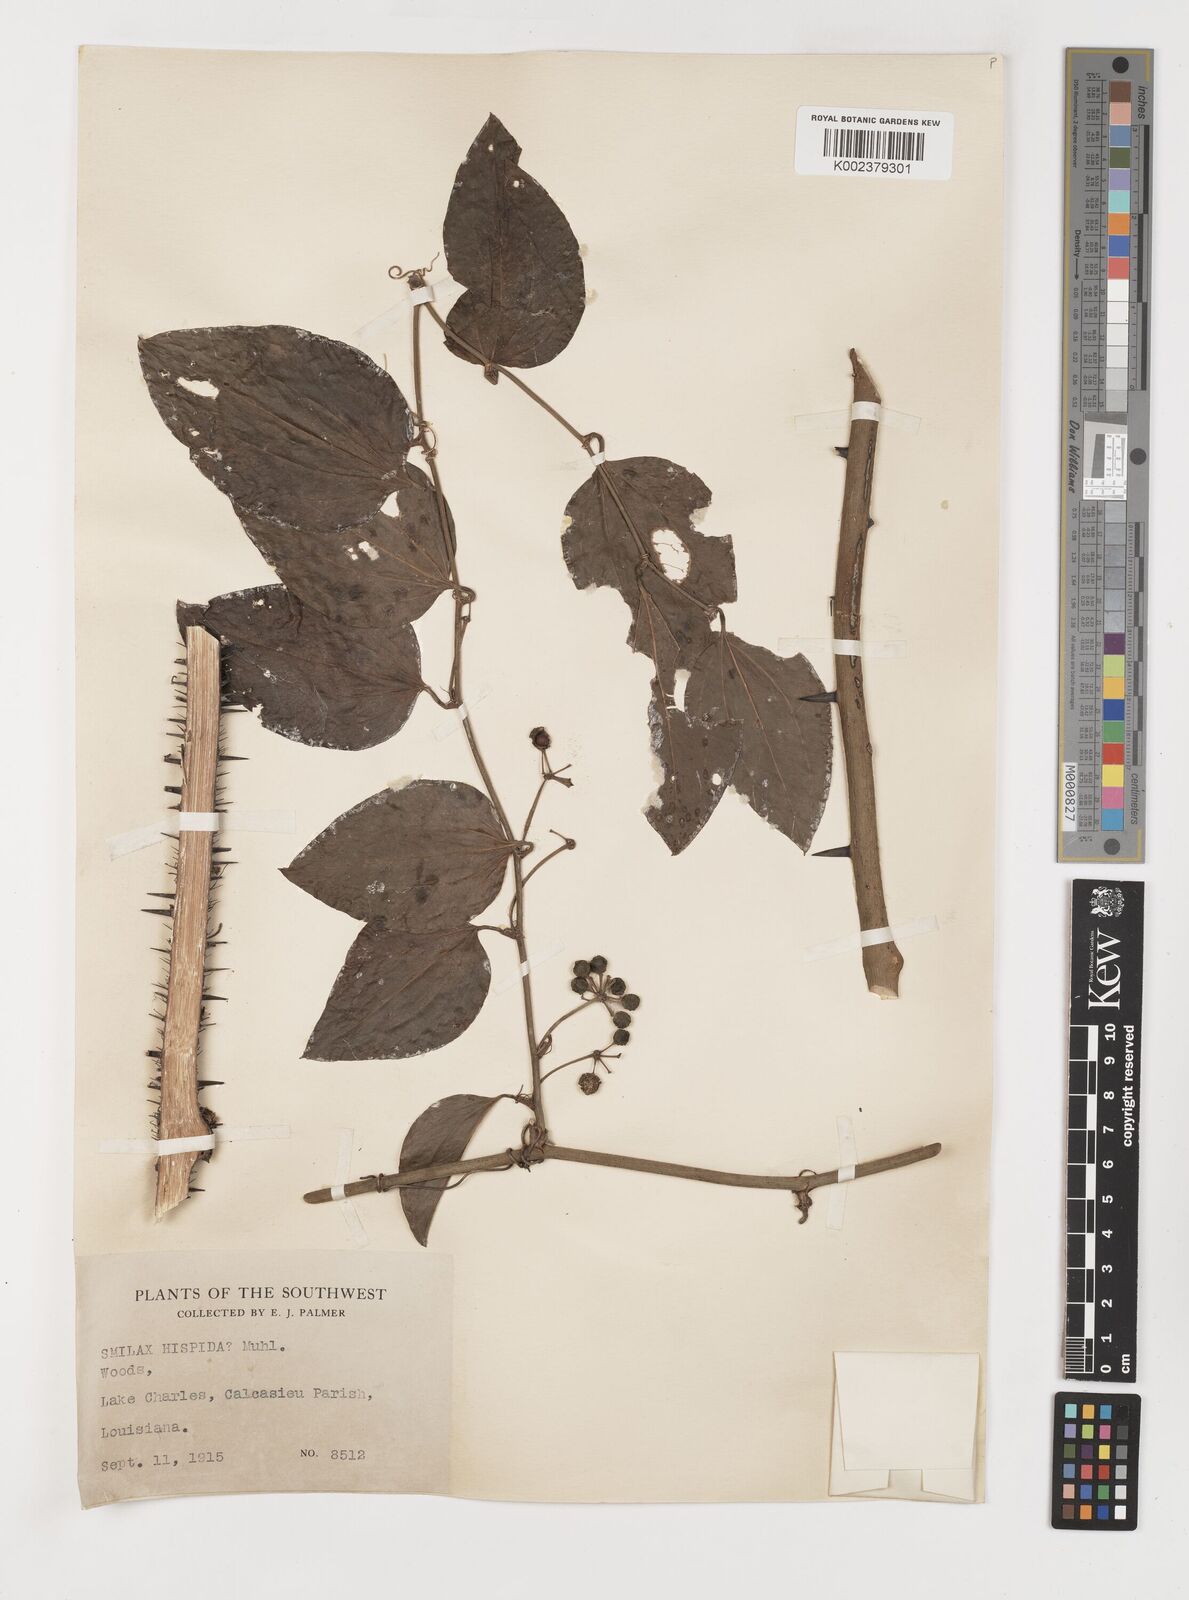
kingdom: Plantae
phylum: Tracheophyta
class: Liliopsida
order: Liliales
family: Smilacaceae
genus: Smilax
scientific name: Smilax tamnoides
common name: Hellfetter
